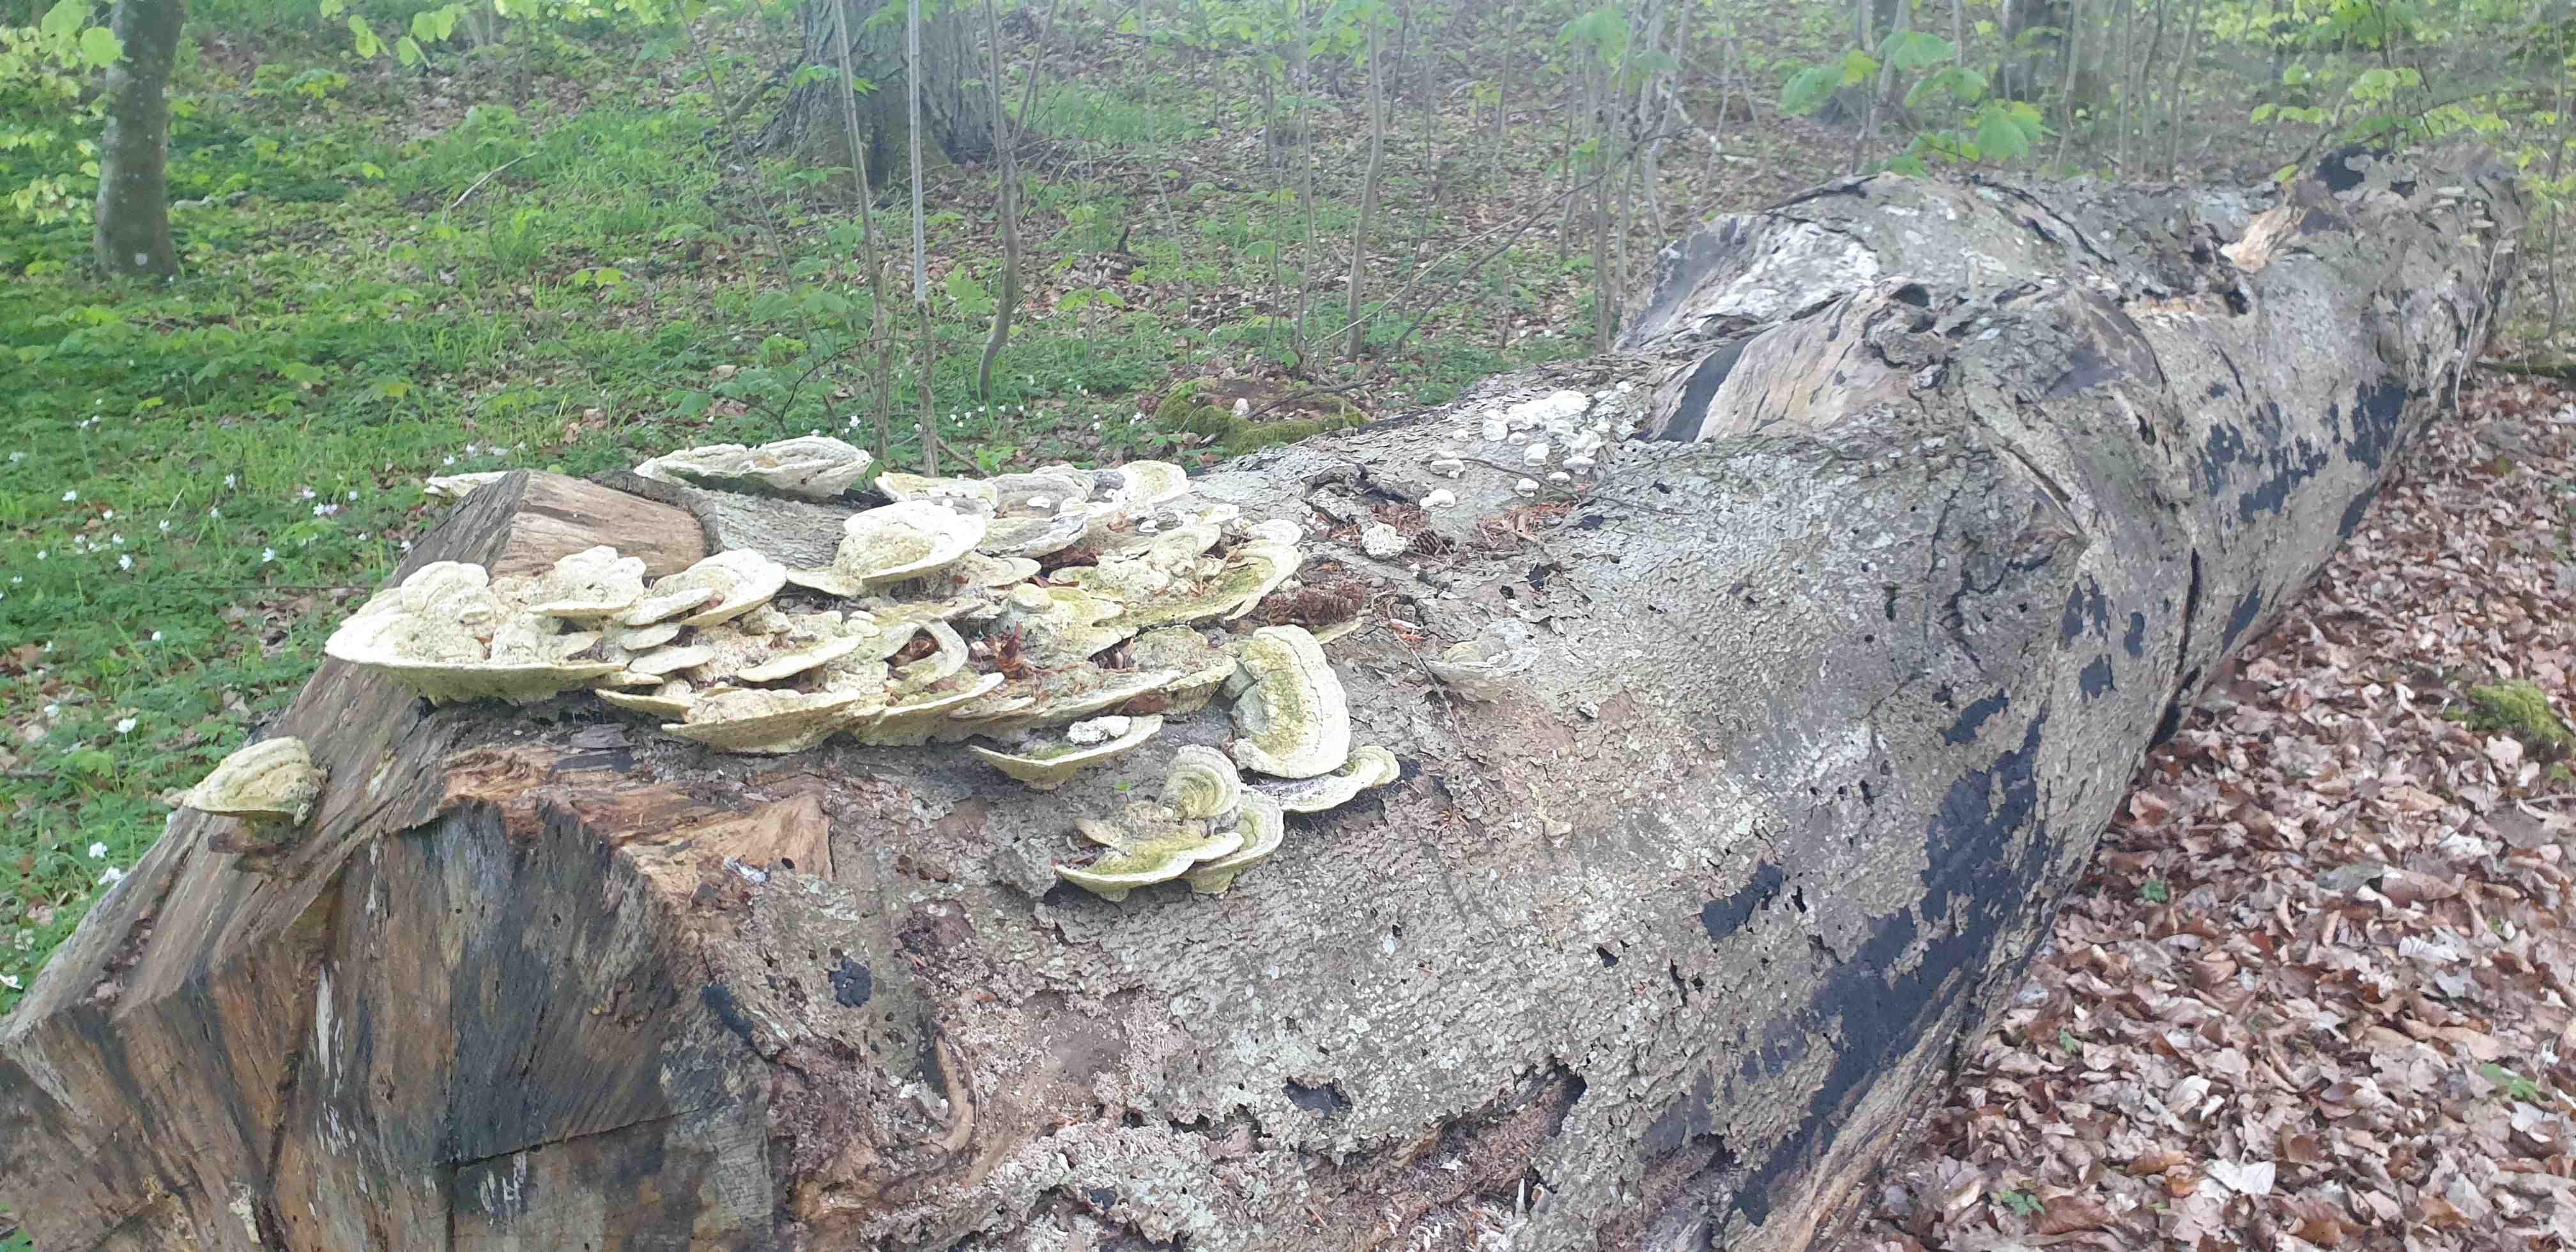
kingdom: Fungi
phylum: Basidiomycota
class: Agaricomycetes
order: Polyporales
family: Polyporaceae
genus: Trametes
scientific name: Trametes gibbosa
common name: puklet læderporesvamp
